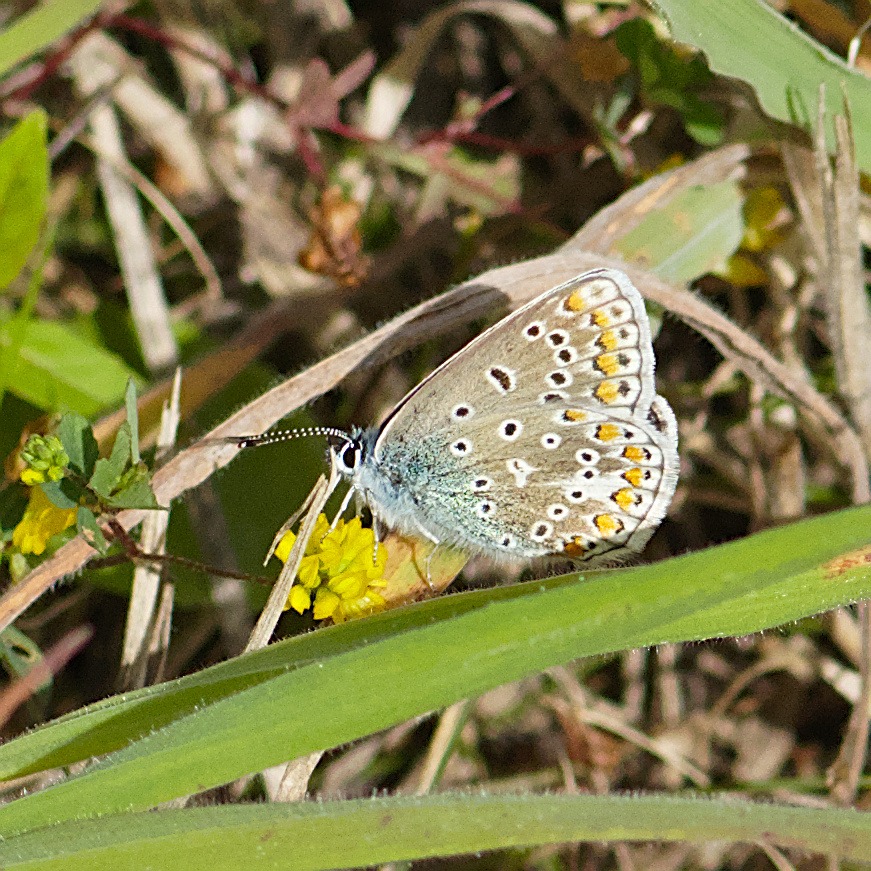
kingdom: Animalia
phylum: Arthropoda
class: Insecta
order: Lepidoptera
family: Lycaenidae
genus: Polyommatus
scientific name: Polyommatus icarus
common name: Almindelig blåfugl
